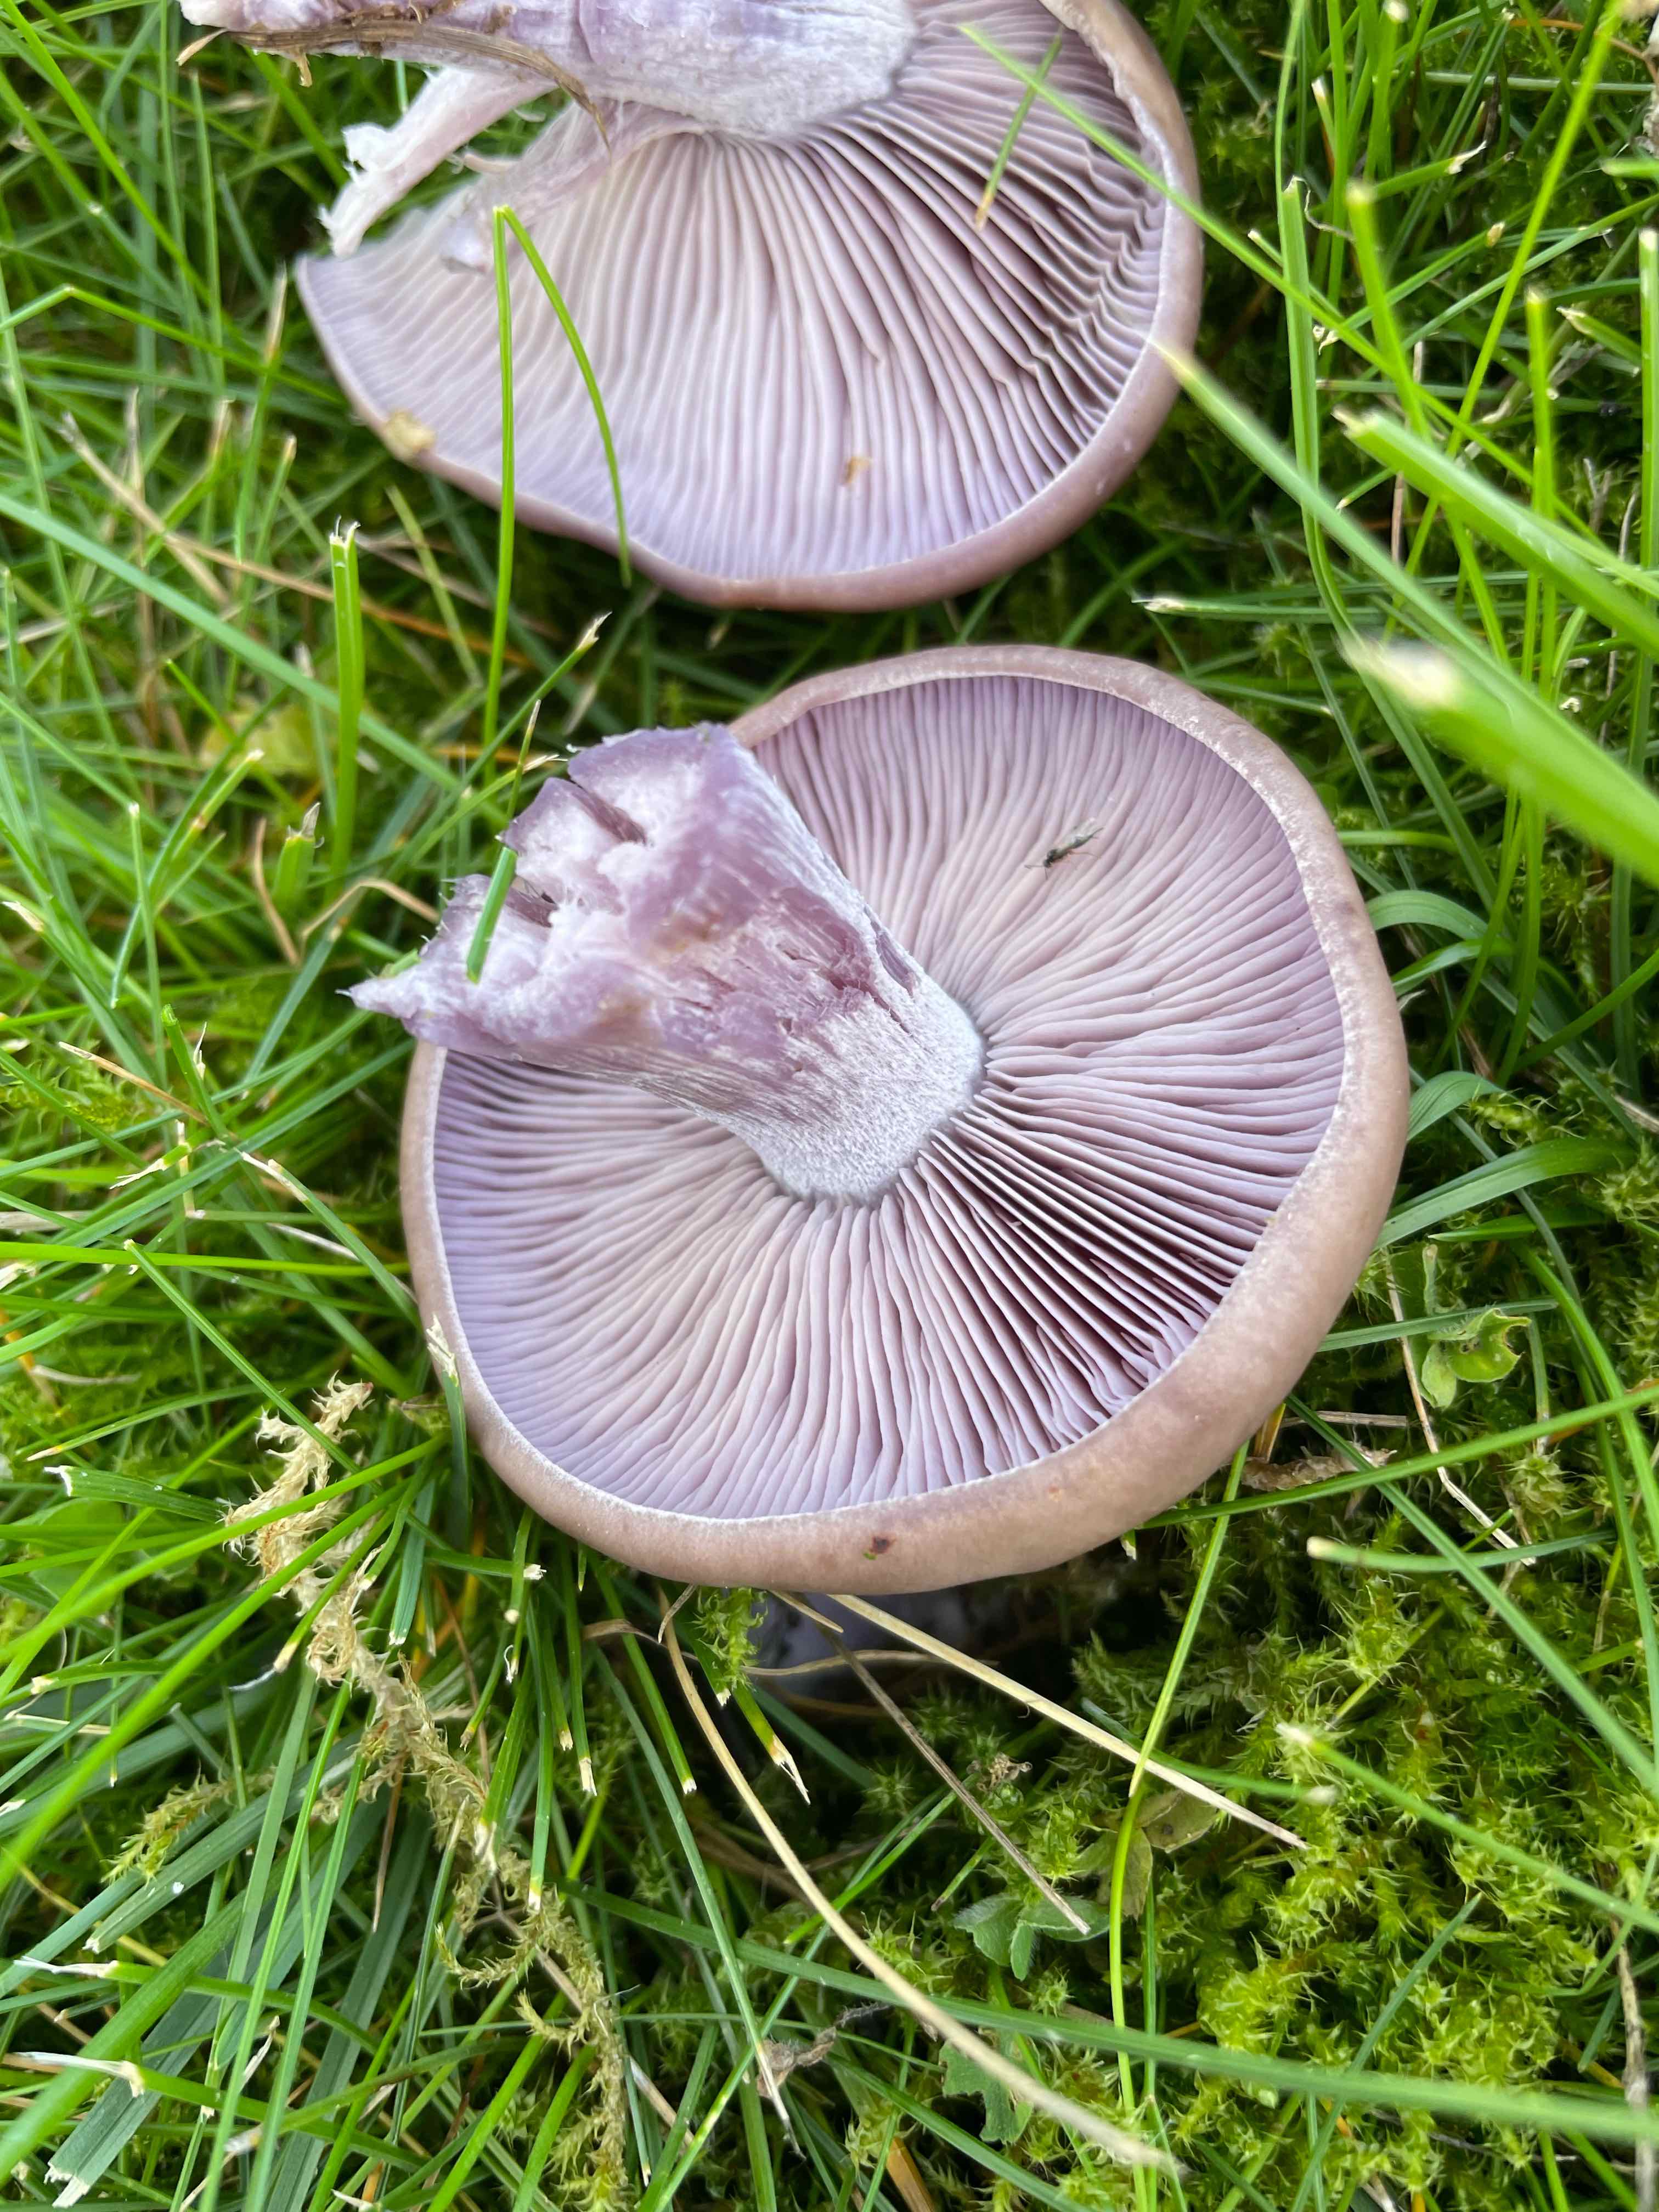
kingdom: Fungi
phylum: Basidiomycota
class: Agaricomycetes
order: Agaricales
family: Tricholomataceae
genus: Lepista
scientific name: Lepista nuda
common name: violet hekseringshat
